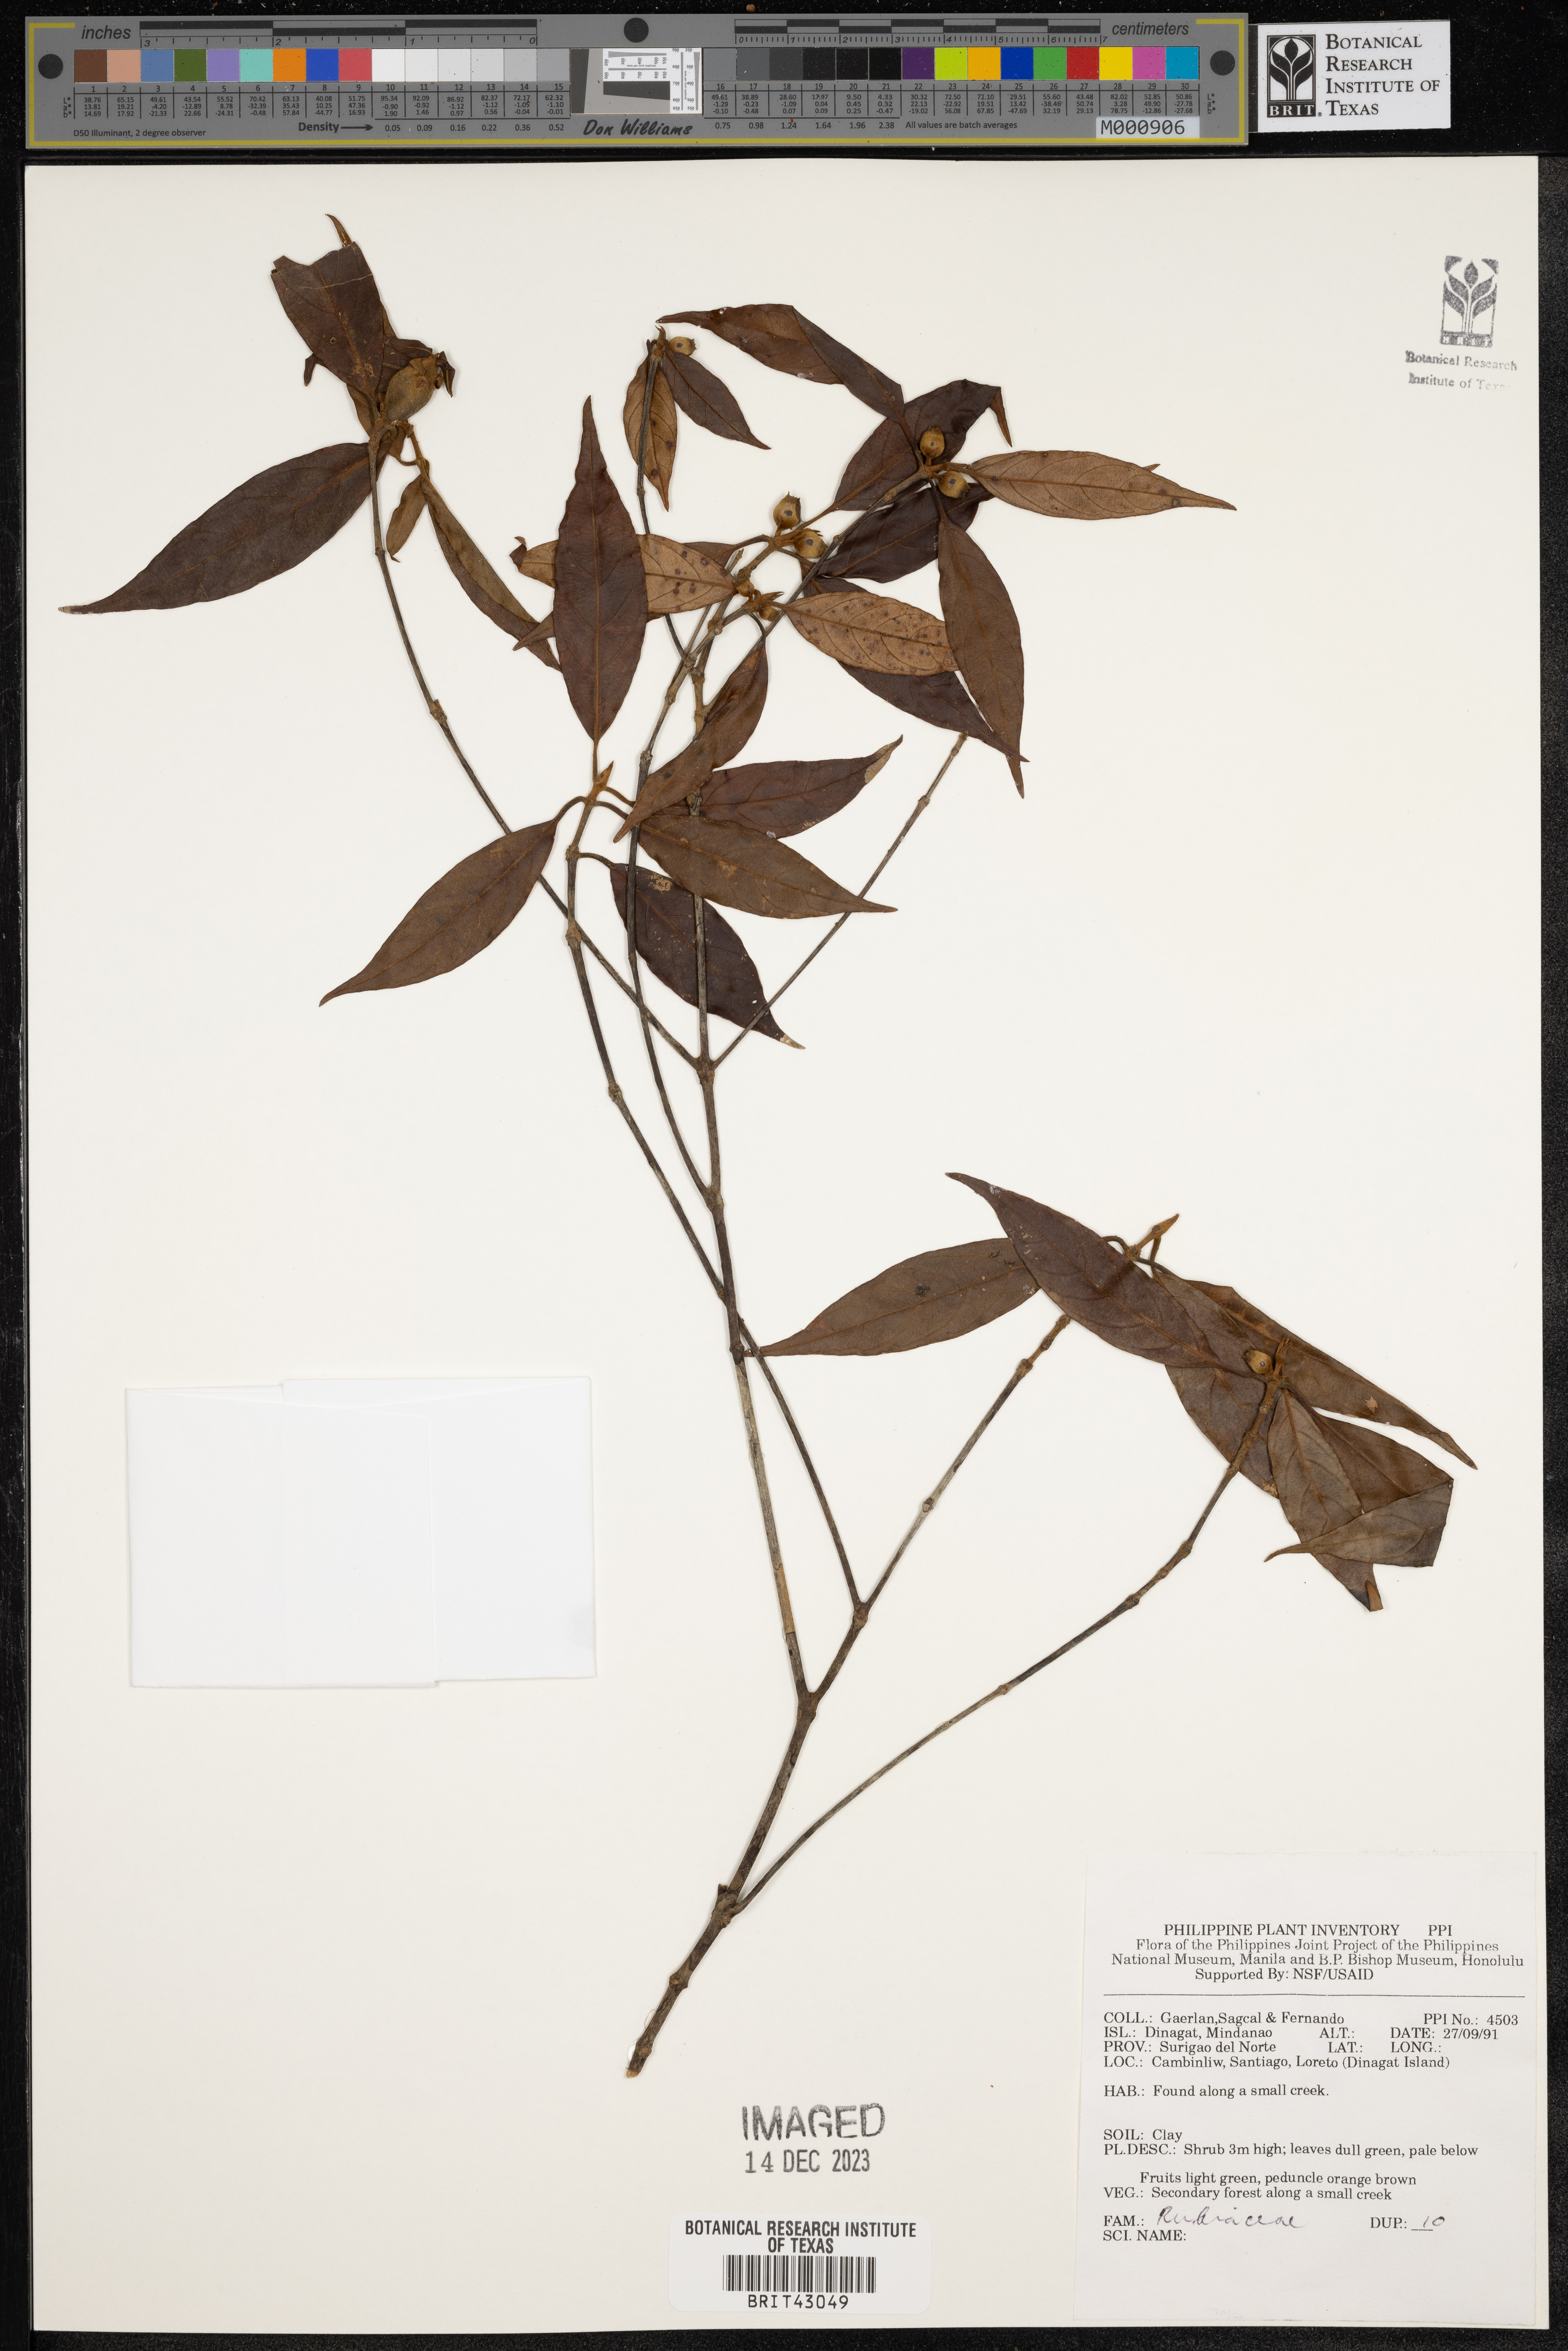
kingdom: Plantae
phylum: Tracheophyta
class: Magnoliopsida
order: Gentianales
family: Rubiaceae
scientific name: Rubiaceae
